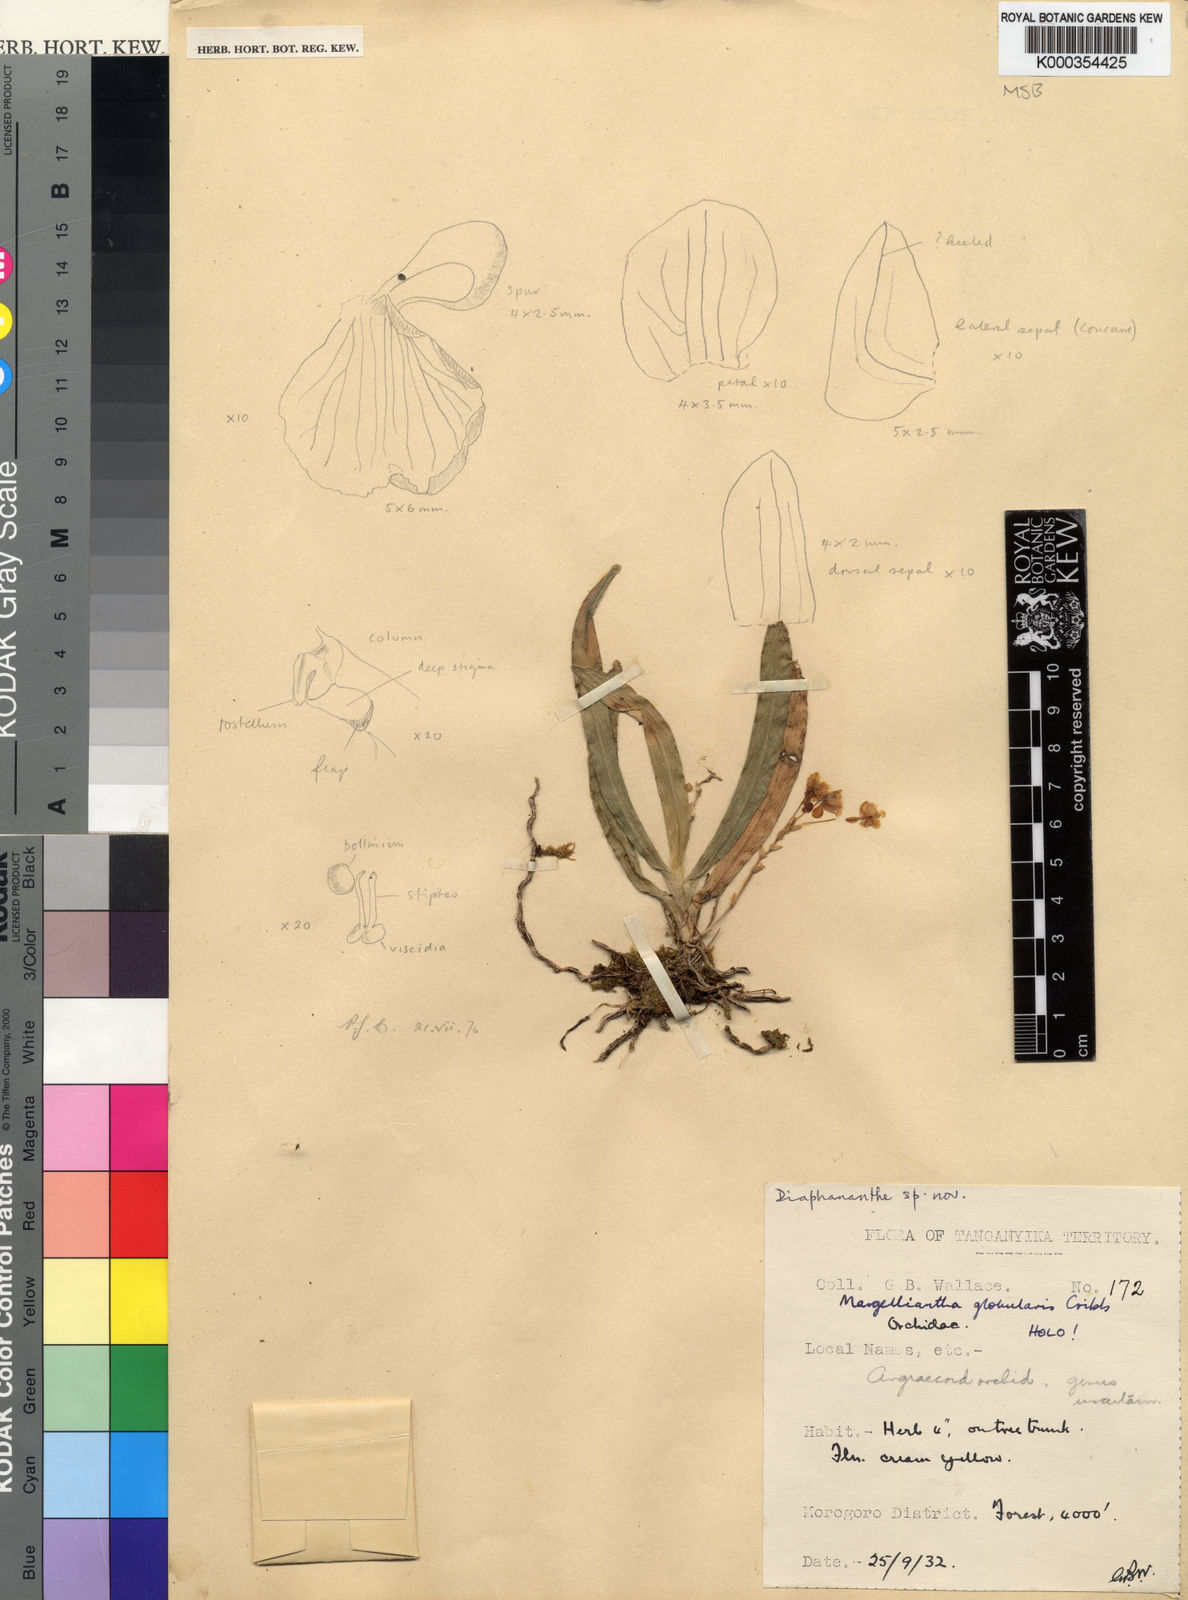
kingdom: Plantae
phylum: Tracheophyta
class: Liliopsida
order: Asparagales
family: Orchidaceae
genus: Rhipidoglossum
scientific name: Rhipidoglossum globulare
